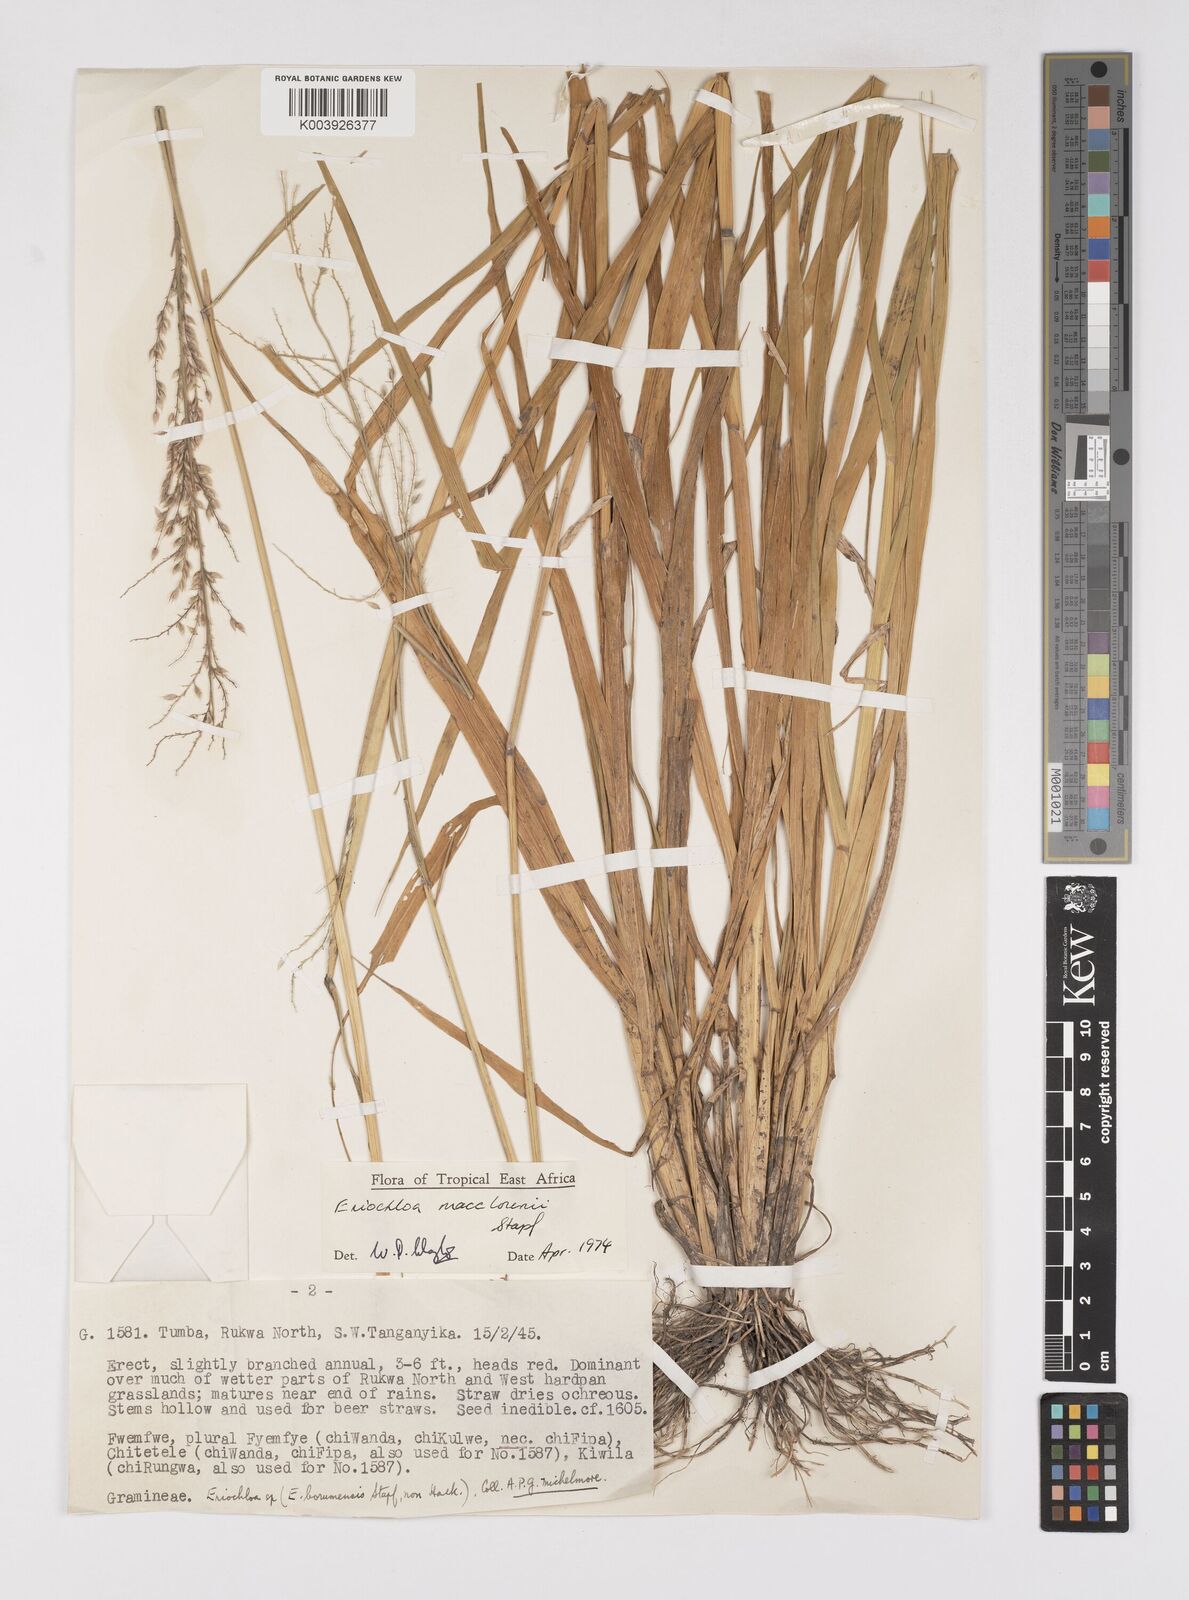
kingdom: Plantae
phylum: Tracheophyta
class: Liliopsida
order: Poales
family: Poaceae
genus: Eriochloa
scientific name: Eriochloa macclounii
